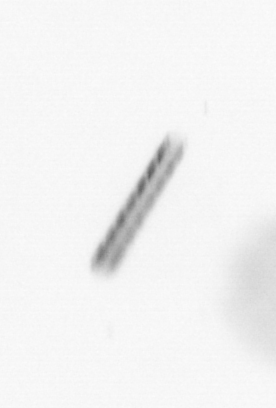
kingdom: Chromista
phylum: Ochrophyta
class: Bacillariophyceae
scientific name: Bacillariophyceae
